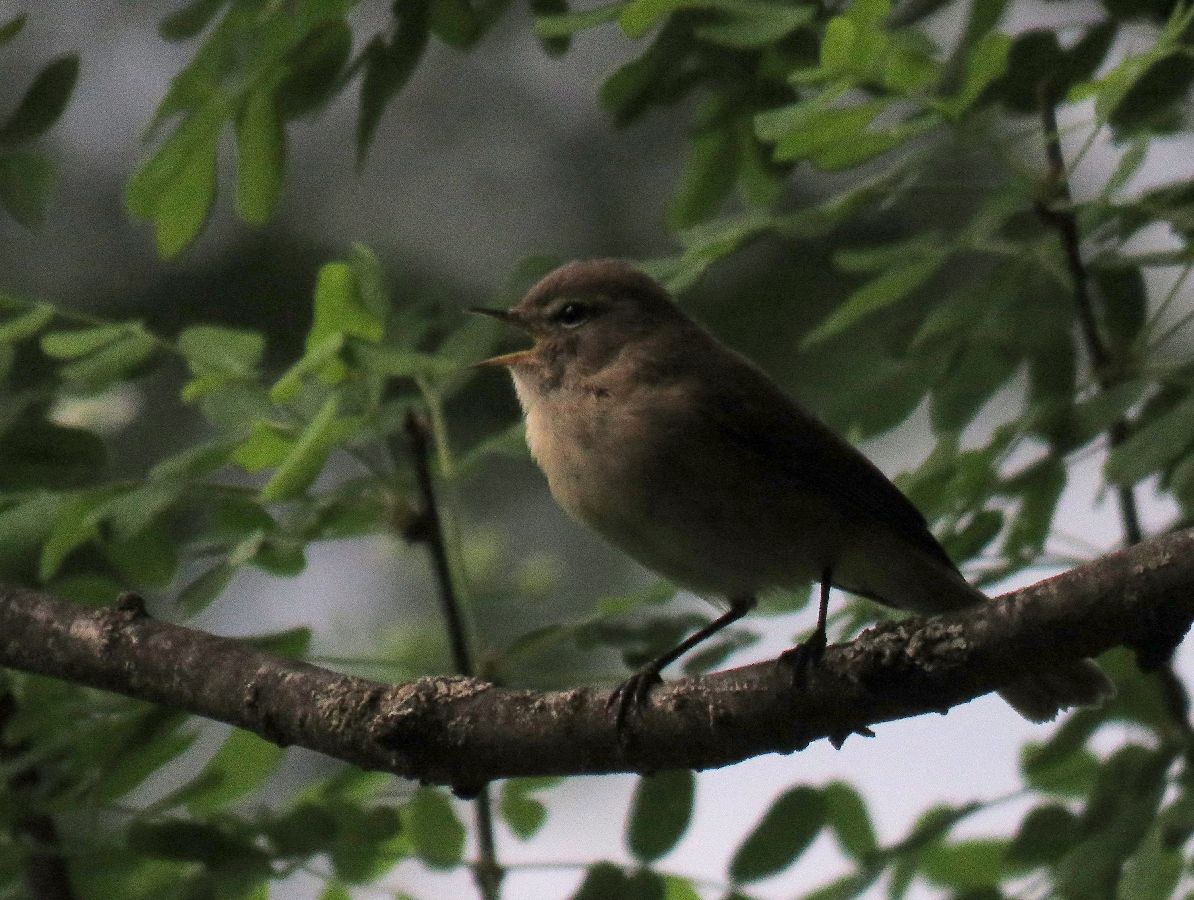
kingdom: Animalia
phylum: Chordata
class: Aves
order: Passeriformes
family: Phylloscopidae
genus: Phylloscopus
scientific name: Phylloscopus sindianus
